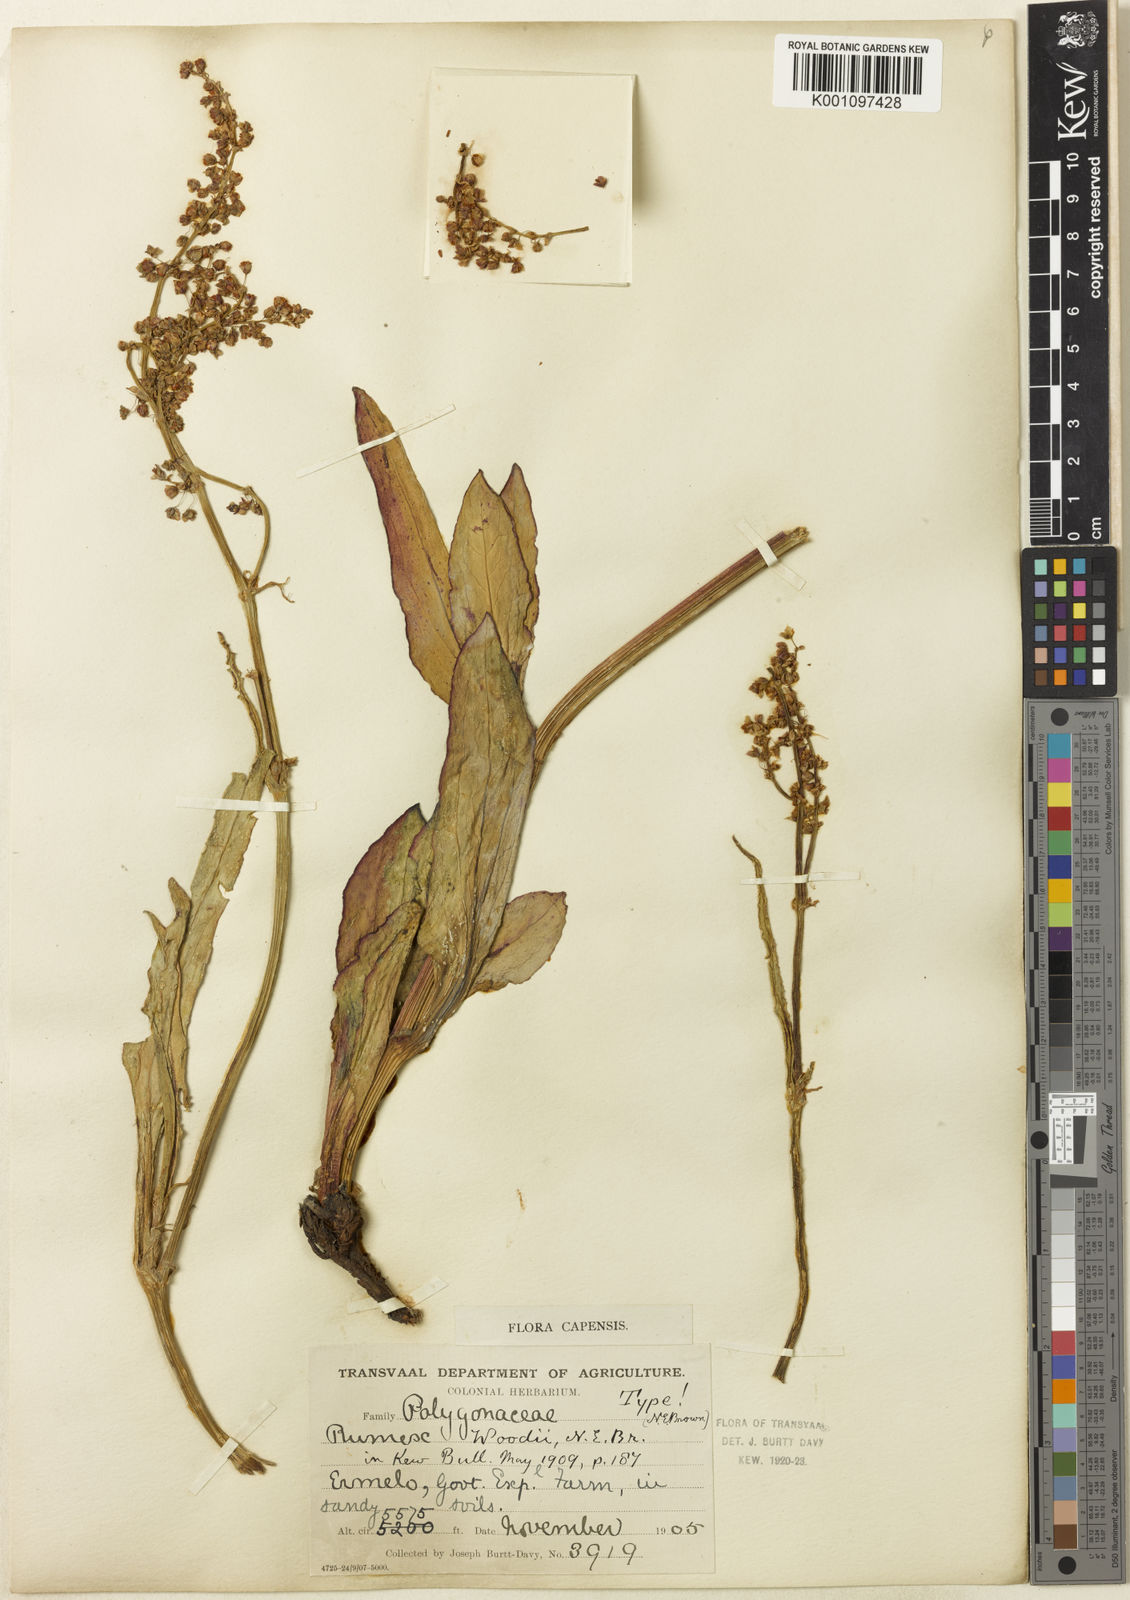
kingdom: Plantae
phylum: Tracheophyta
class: Magnoliopsida
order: Caryophyllales
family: Polygonaceae
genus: Rumex
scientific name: Rumex woodii
